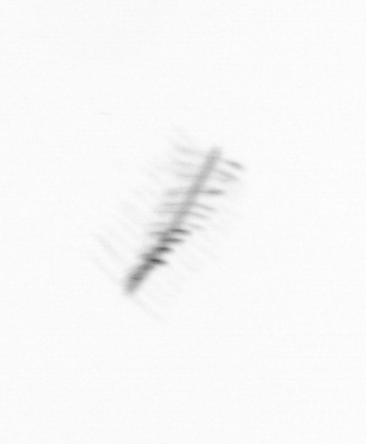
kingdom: Chromista
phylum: Ochrophyta
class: Bacillariophyceae
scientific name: Bacillariophyceae
